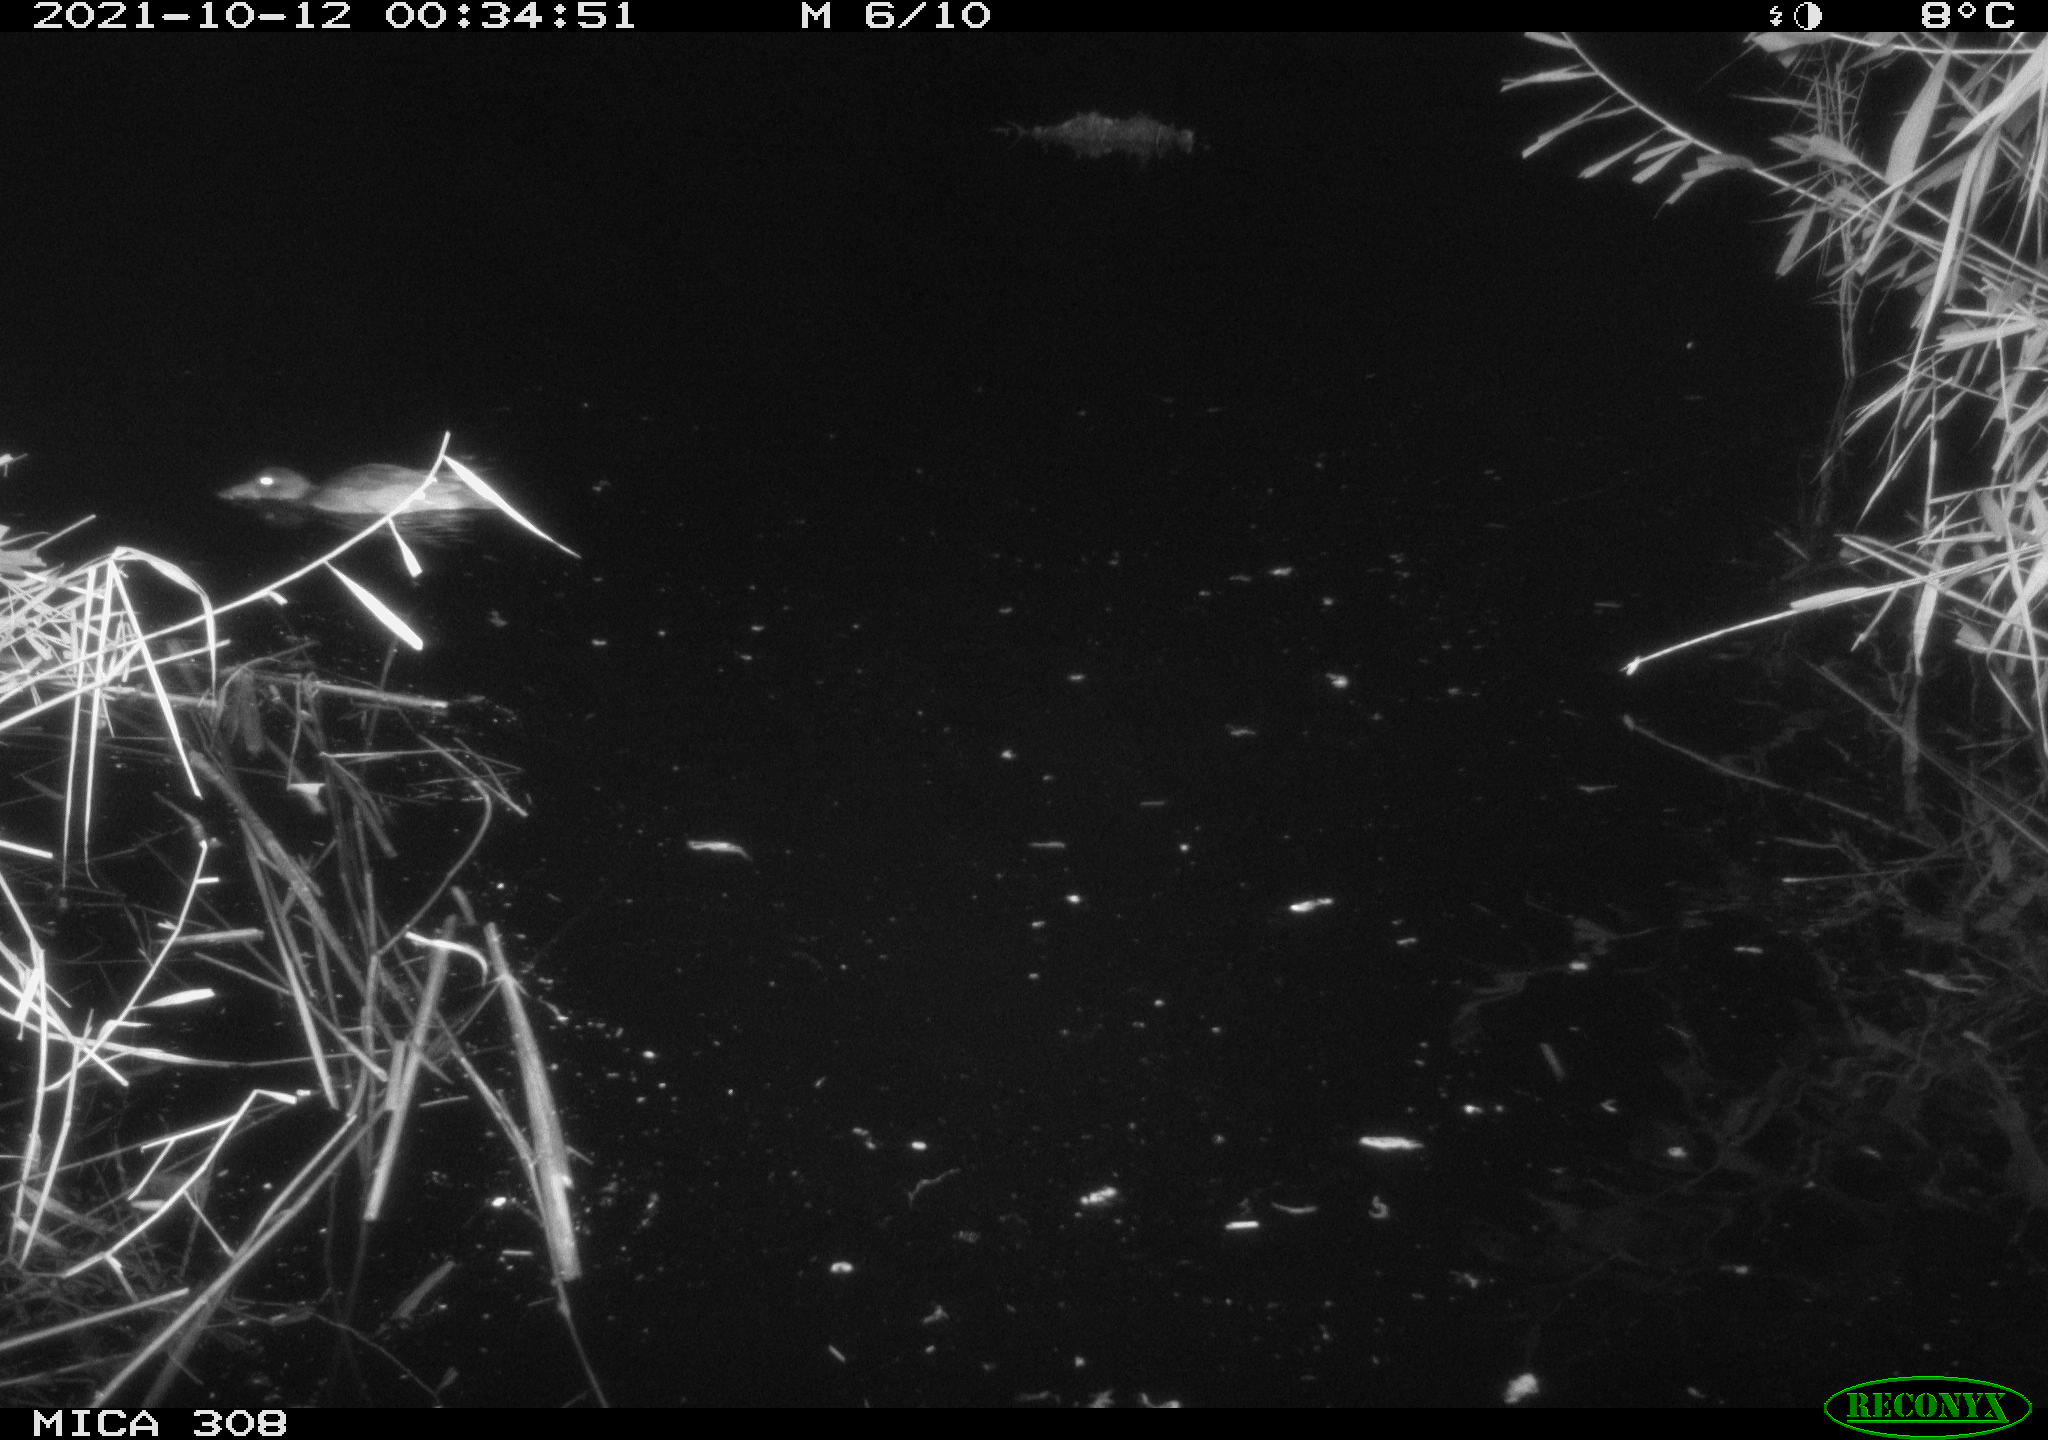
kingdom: Animalia
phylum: Chordata
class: Aves
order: Anseriformes
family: Anatidae
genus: Spatula
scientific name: Spatula clypeata
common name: Northern shoveler
